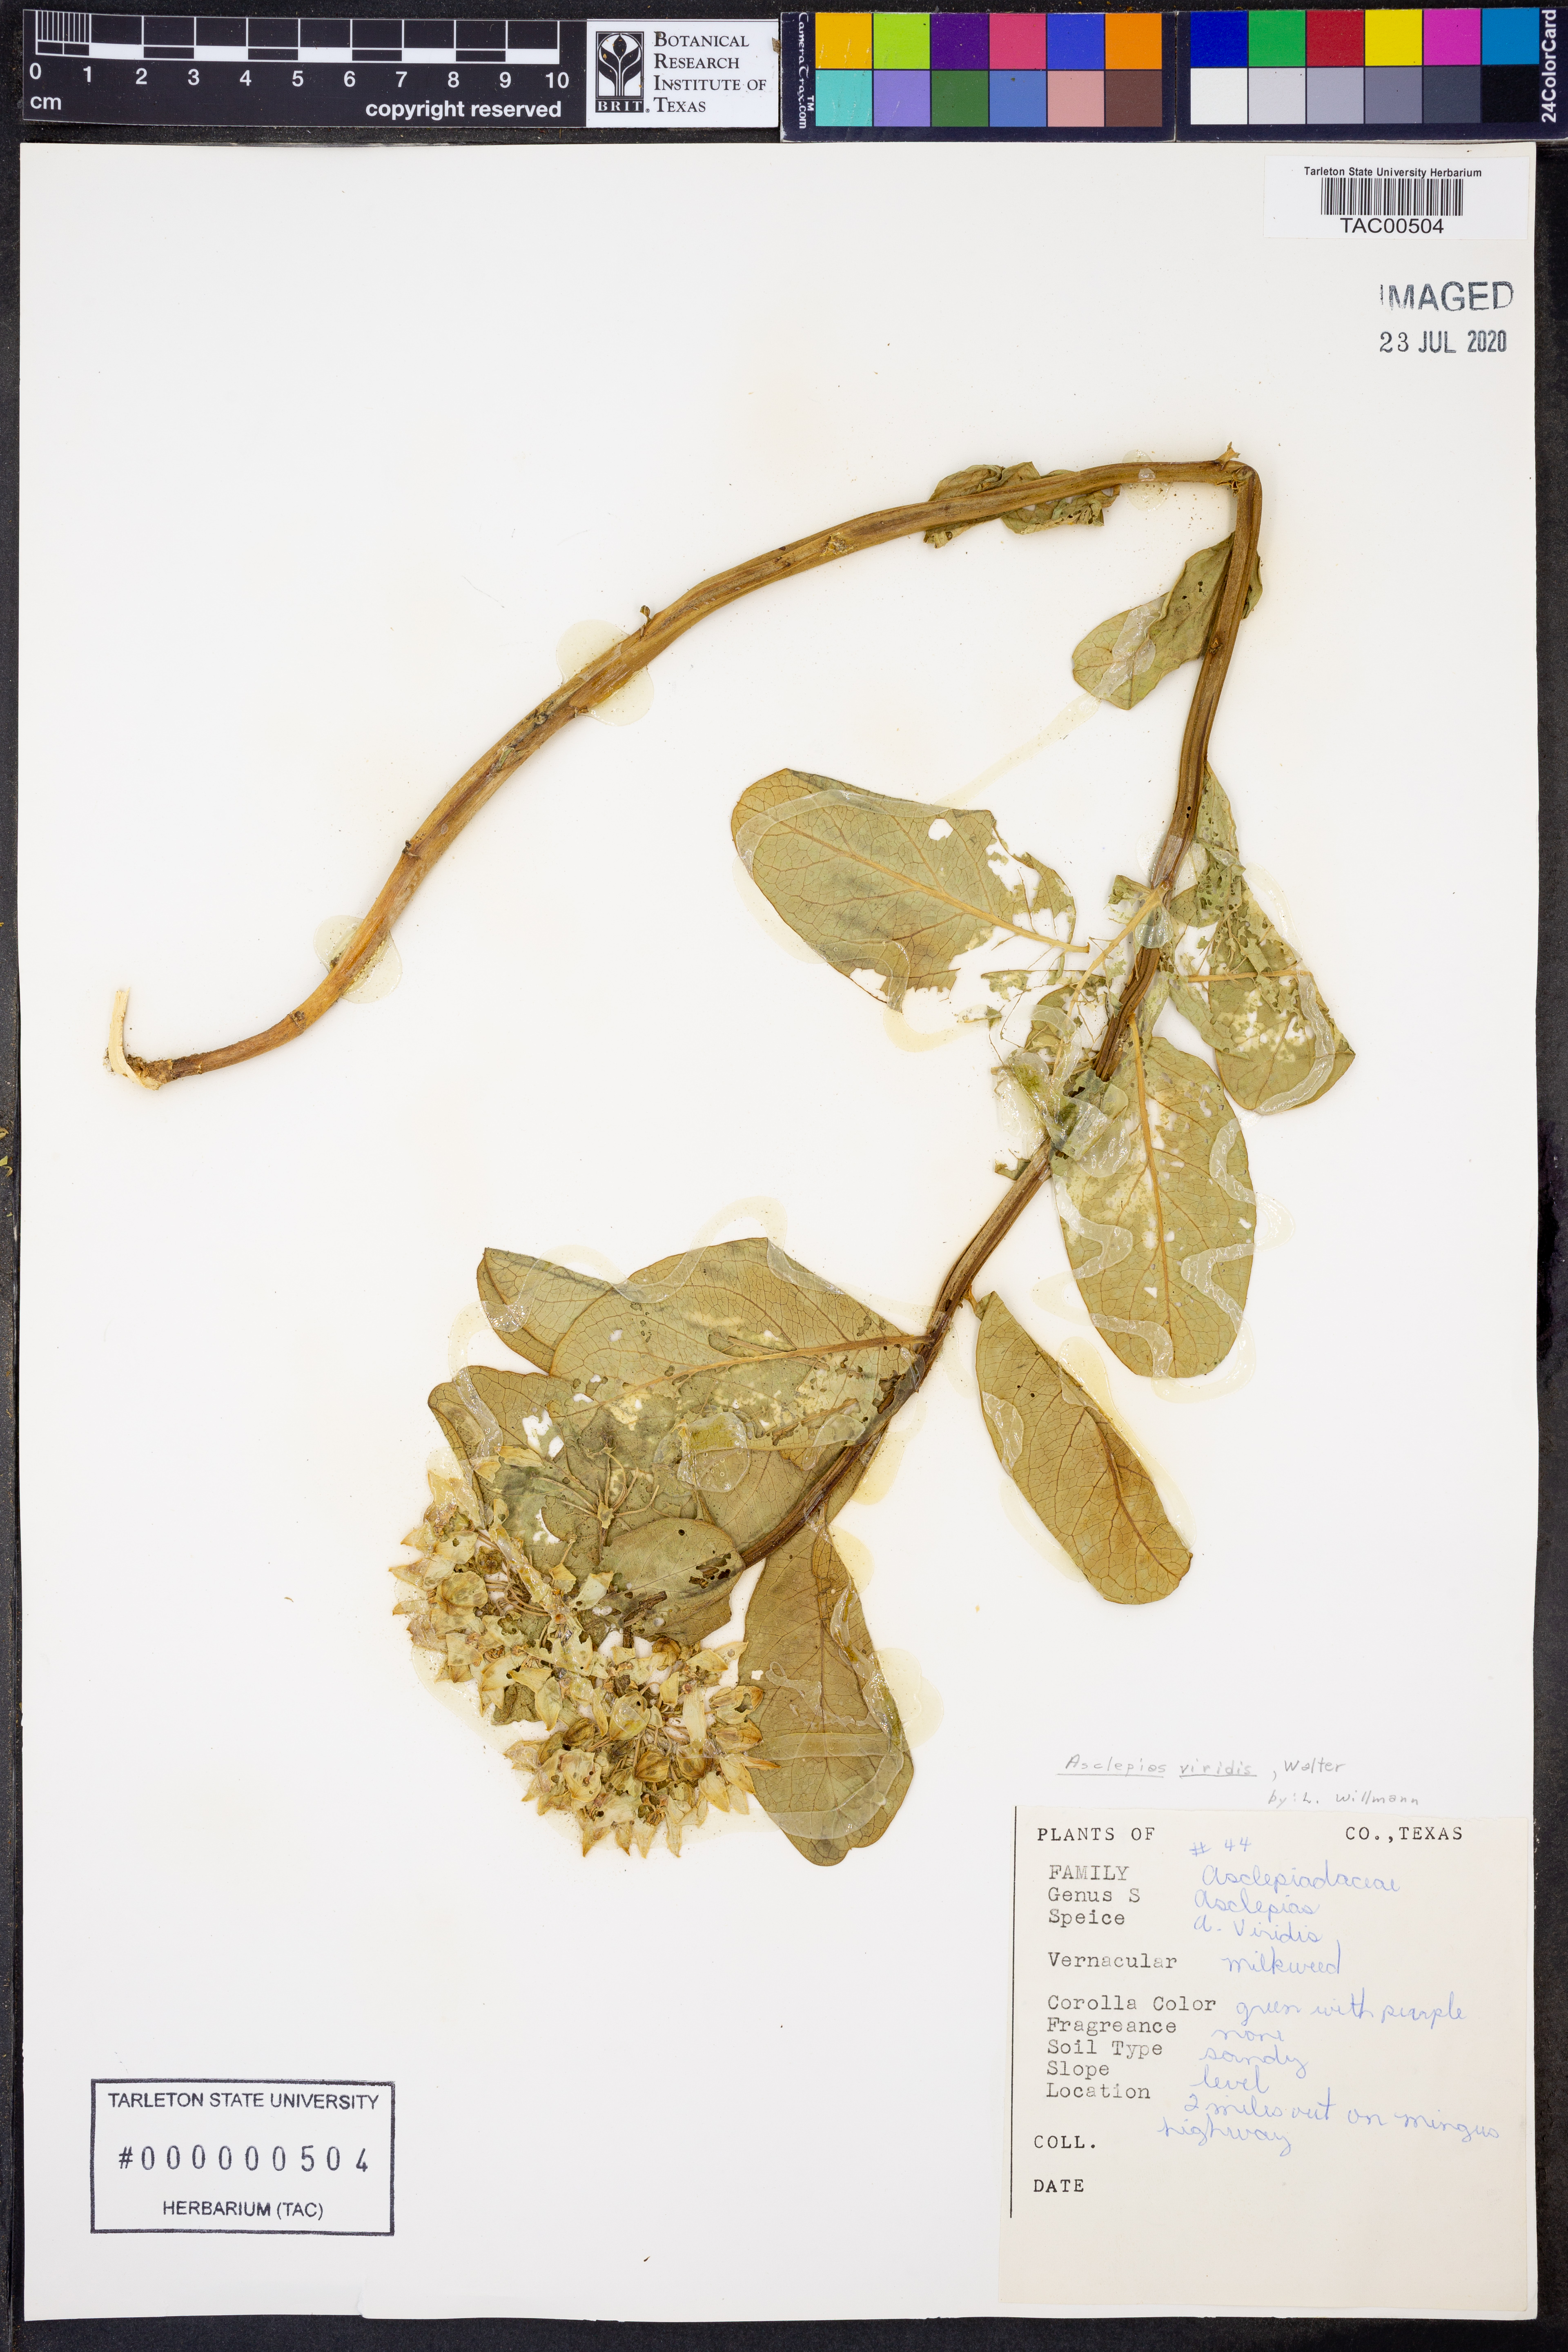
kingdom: Plantae
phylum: Tracheophyta
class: Magnoliopsida
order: Gentianales
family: Apocynaceae
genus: Asclepias
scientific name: Asclepias viridis
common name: Antelope-horns
